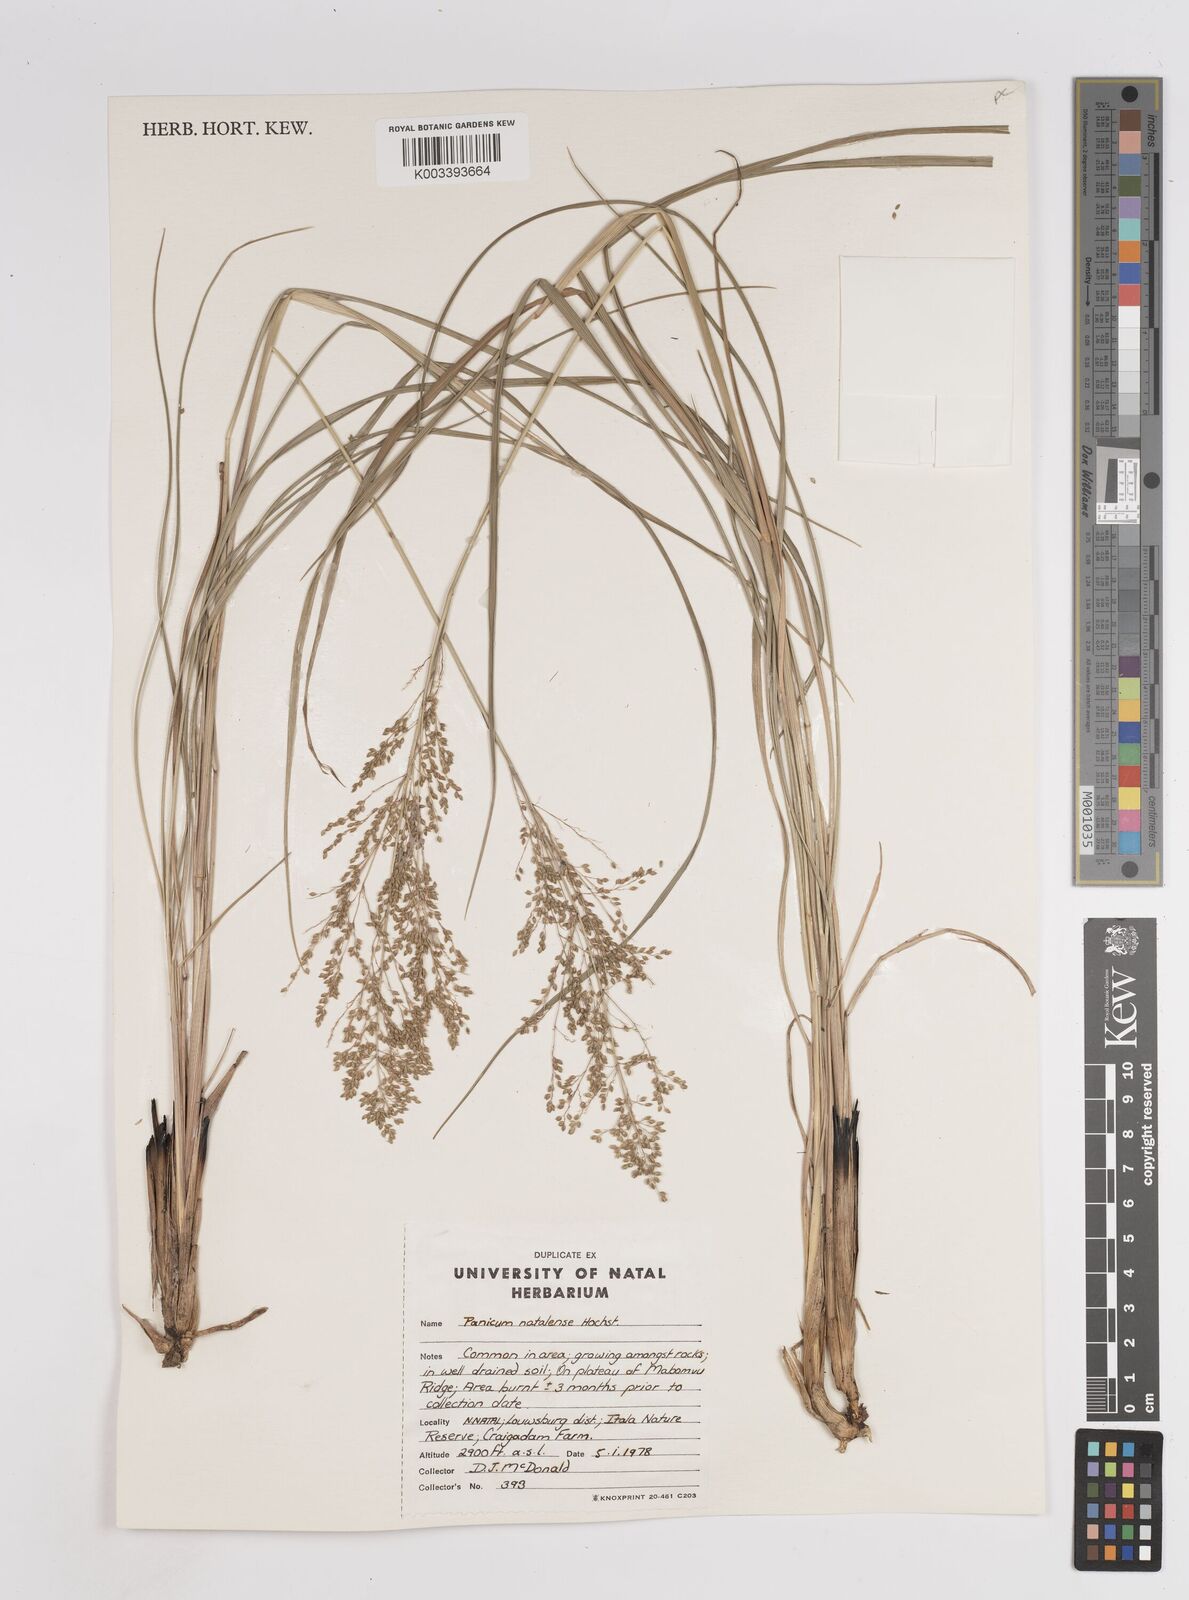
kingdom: Plantae
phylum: Tracheophyta
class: Liliopsida
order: Poales
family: Poaceae
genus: Trichanthecium
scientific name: Trichanthecium natalense
